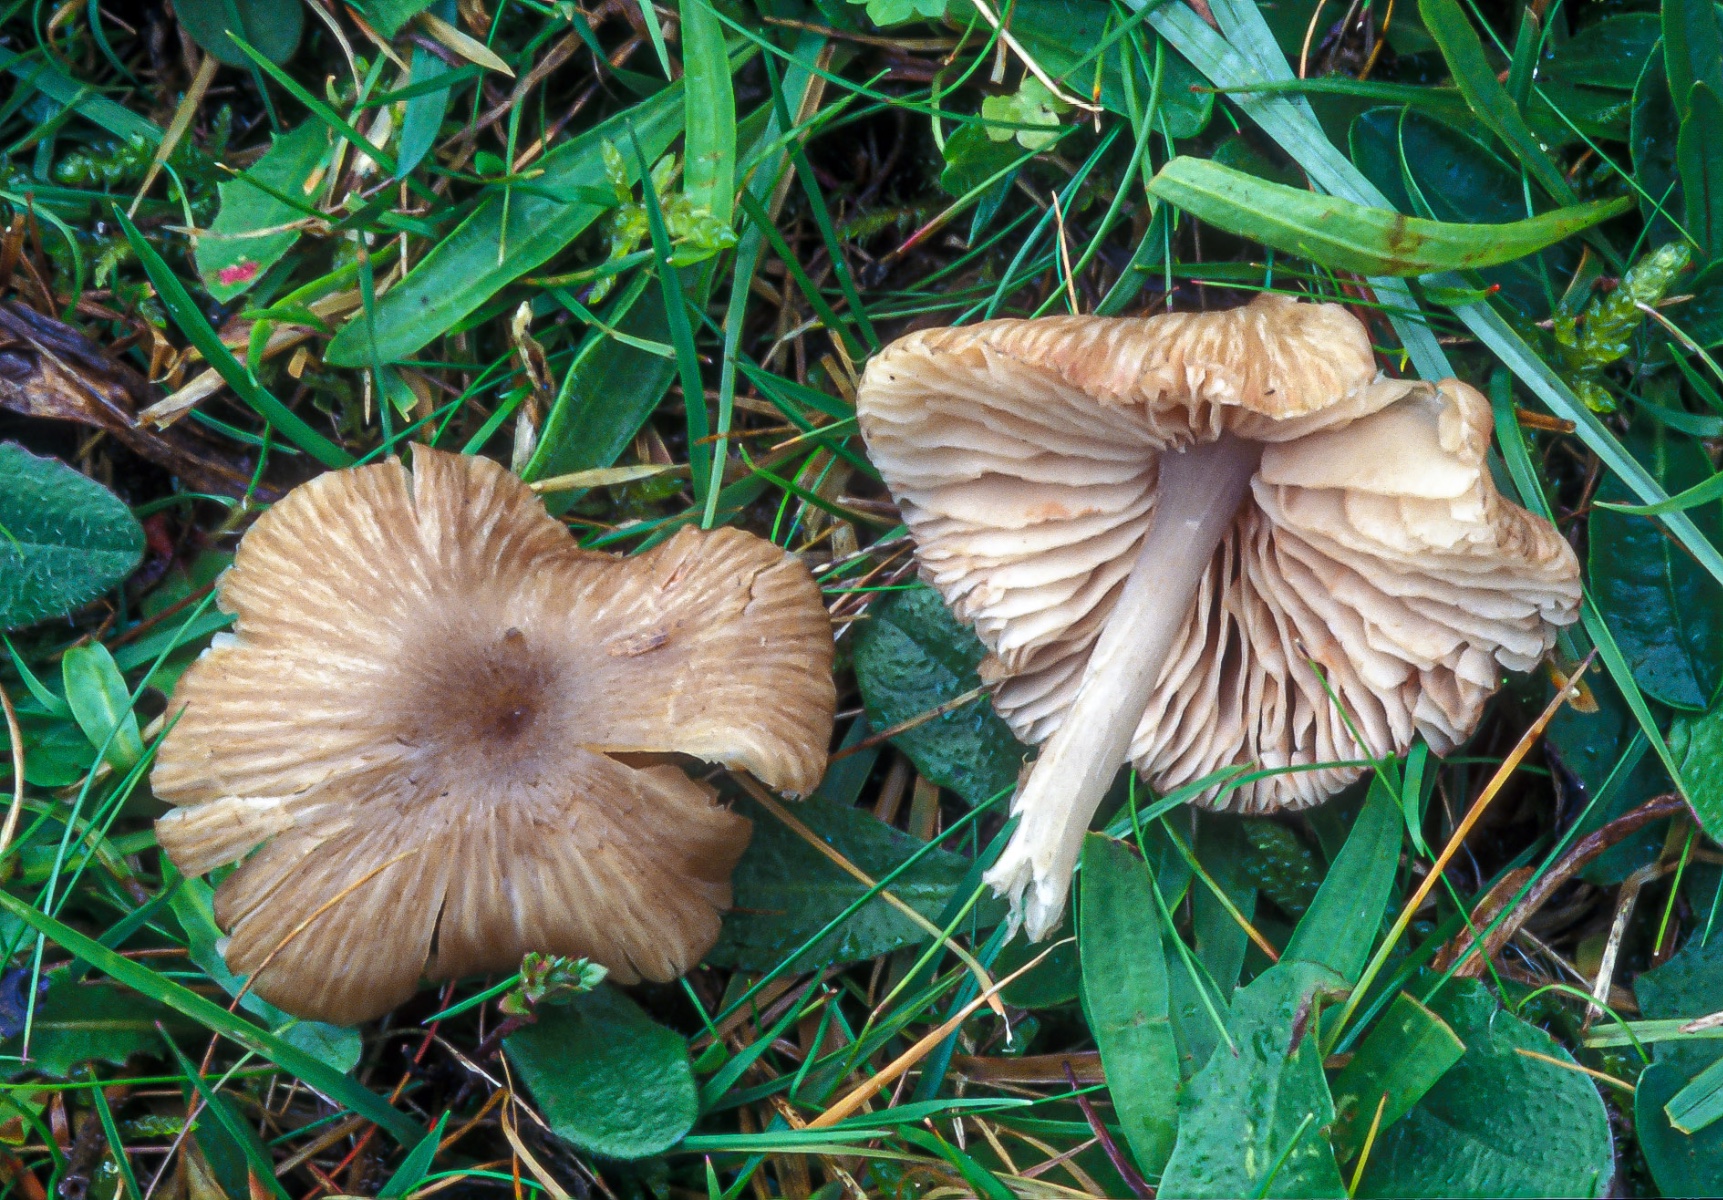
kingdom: Fungi
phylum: Basidiomycota
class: Agaricomycetes
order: Agaricales
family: Entolomataceae
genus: Entoloma
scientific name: Entoloma
